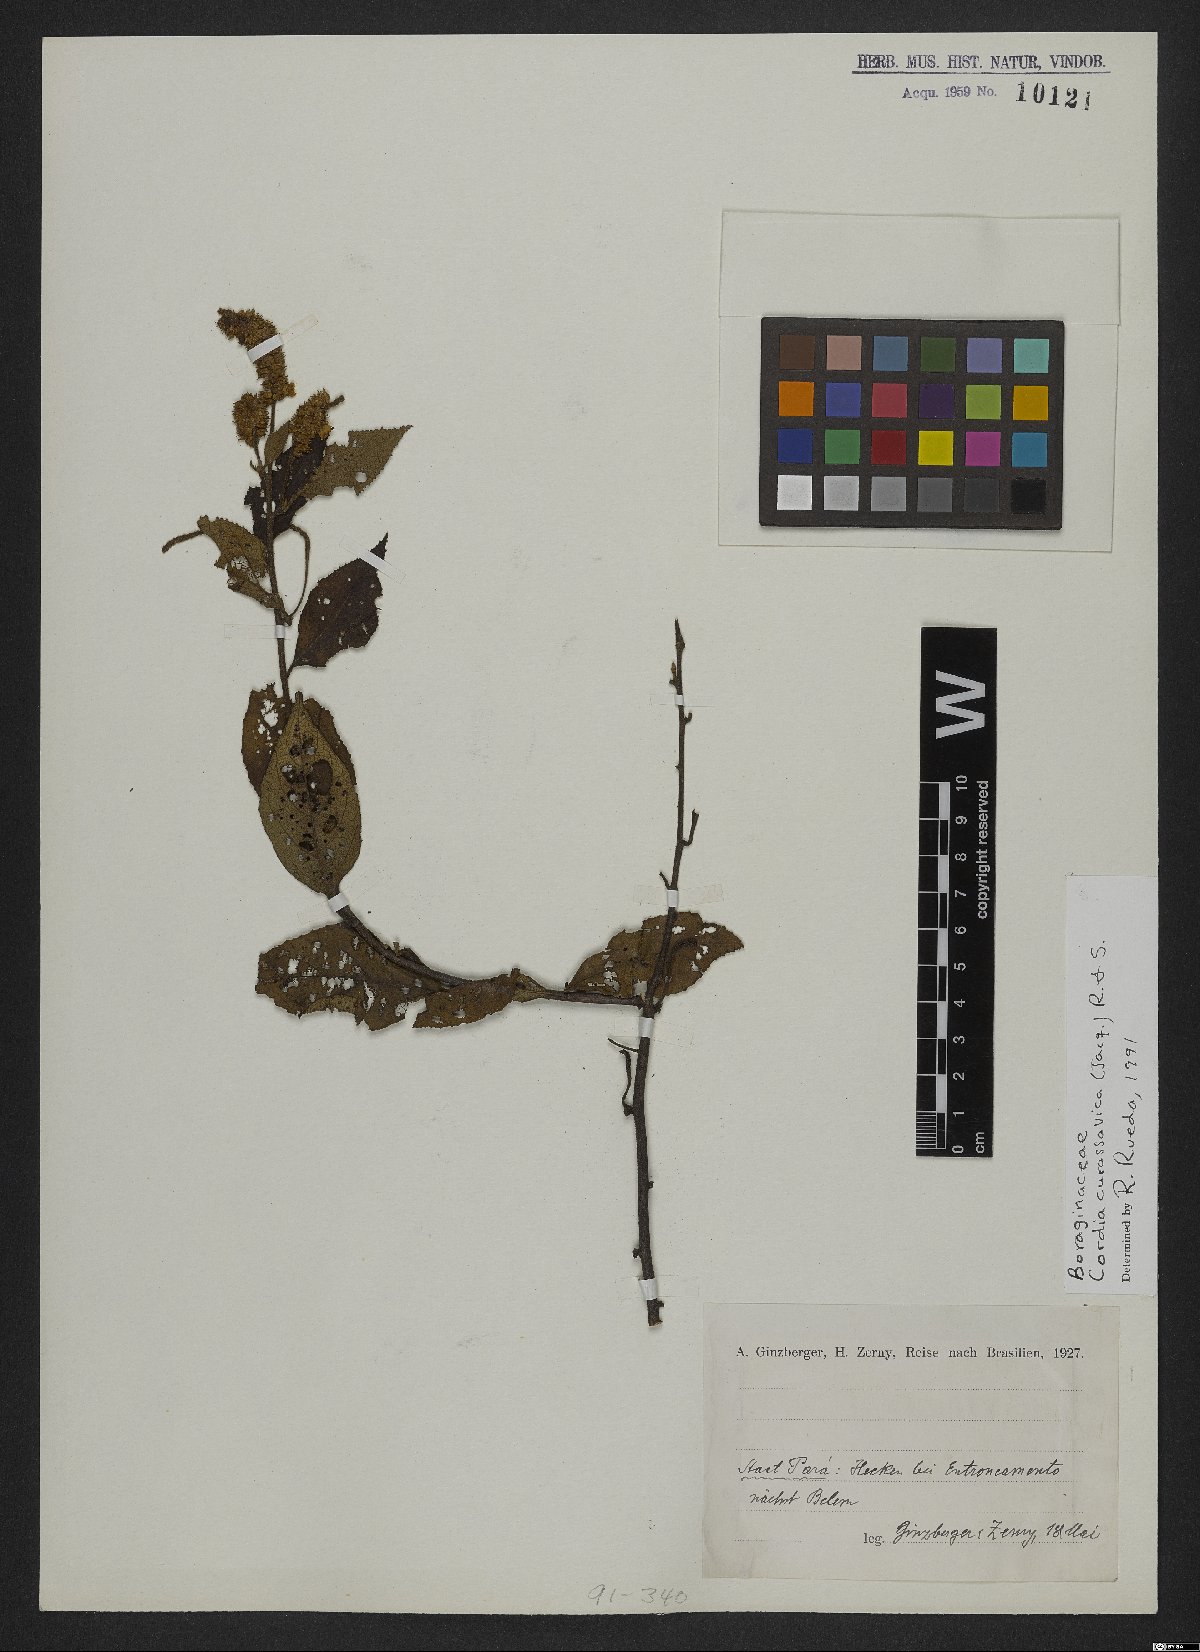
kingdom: Plantae
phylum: Tracheophyta
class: Magnoliopsida
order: Boraginales
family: Cordiaceae
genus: Varronia
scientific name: Varronia curassavica
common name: Black sage
